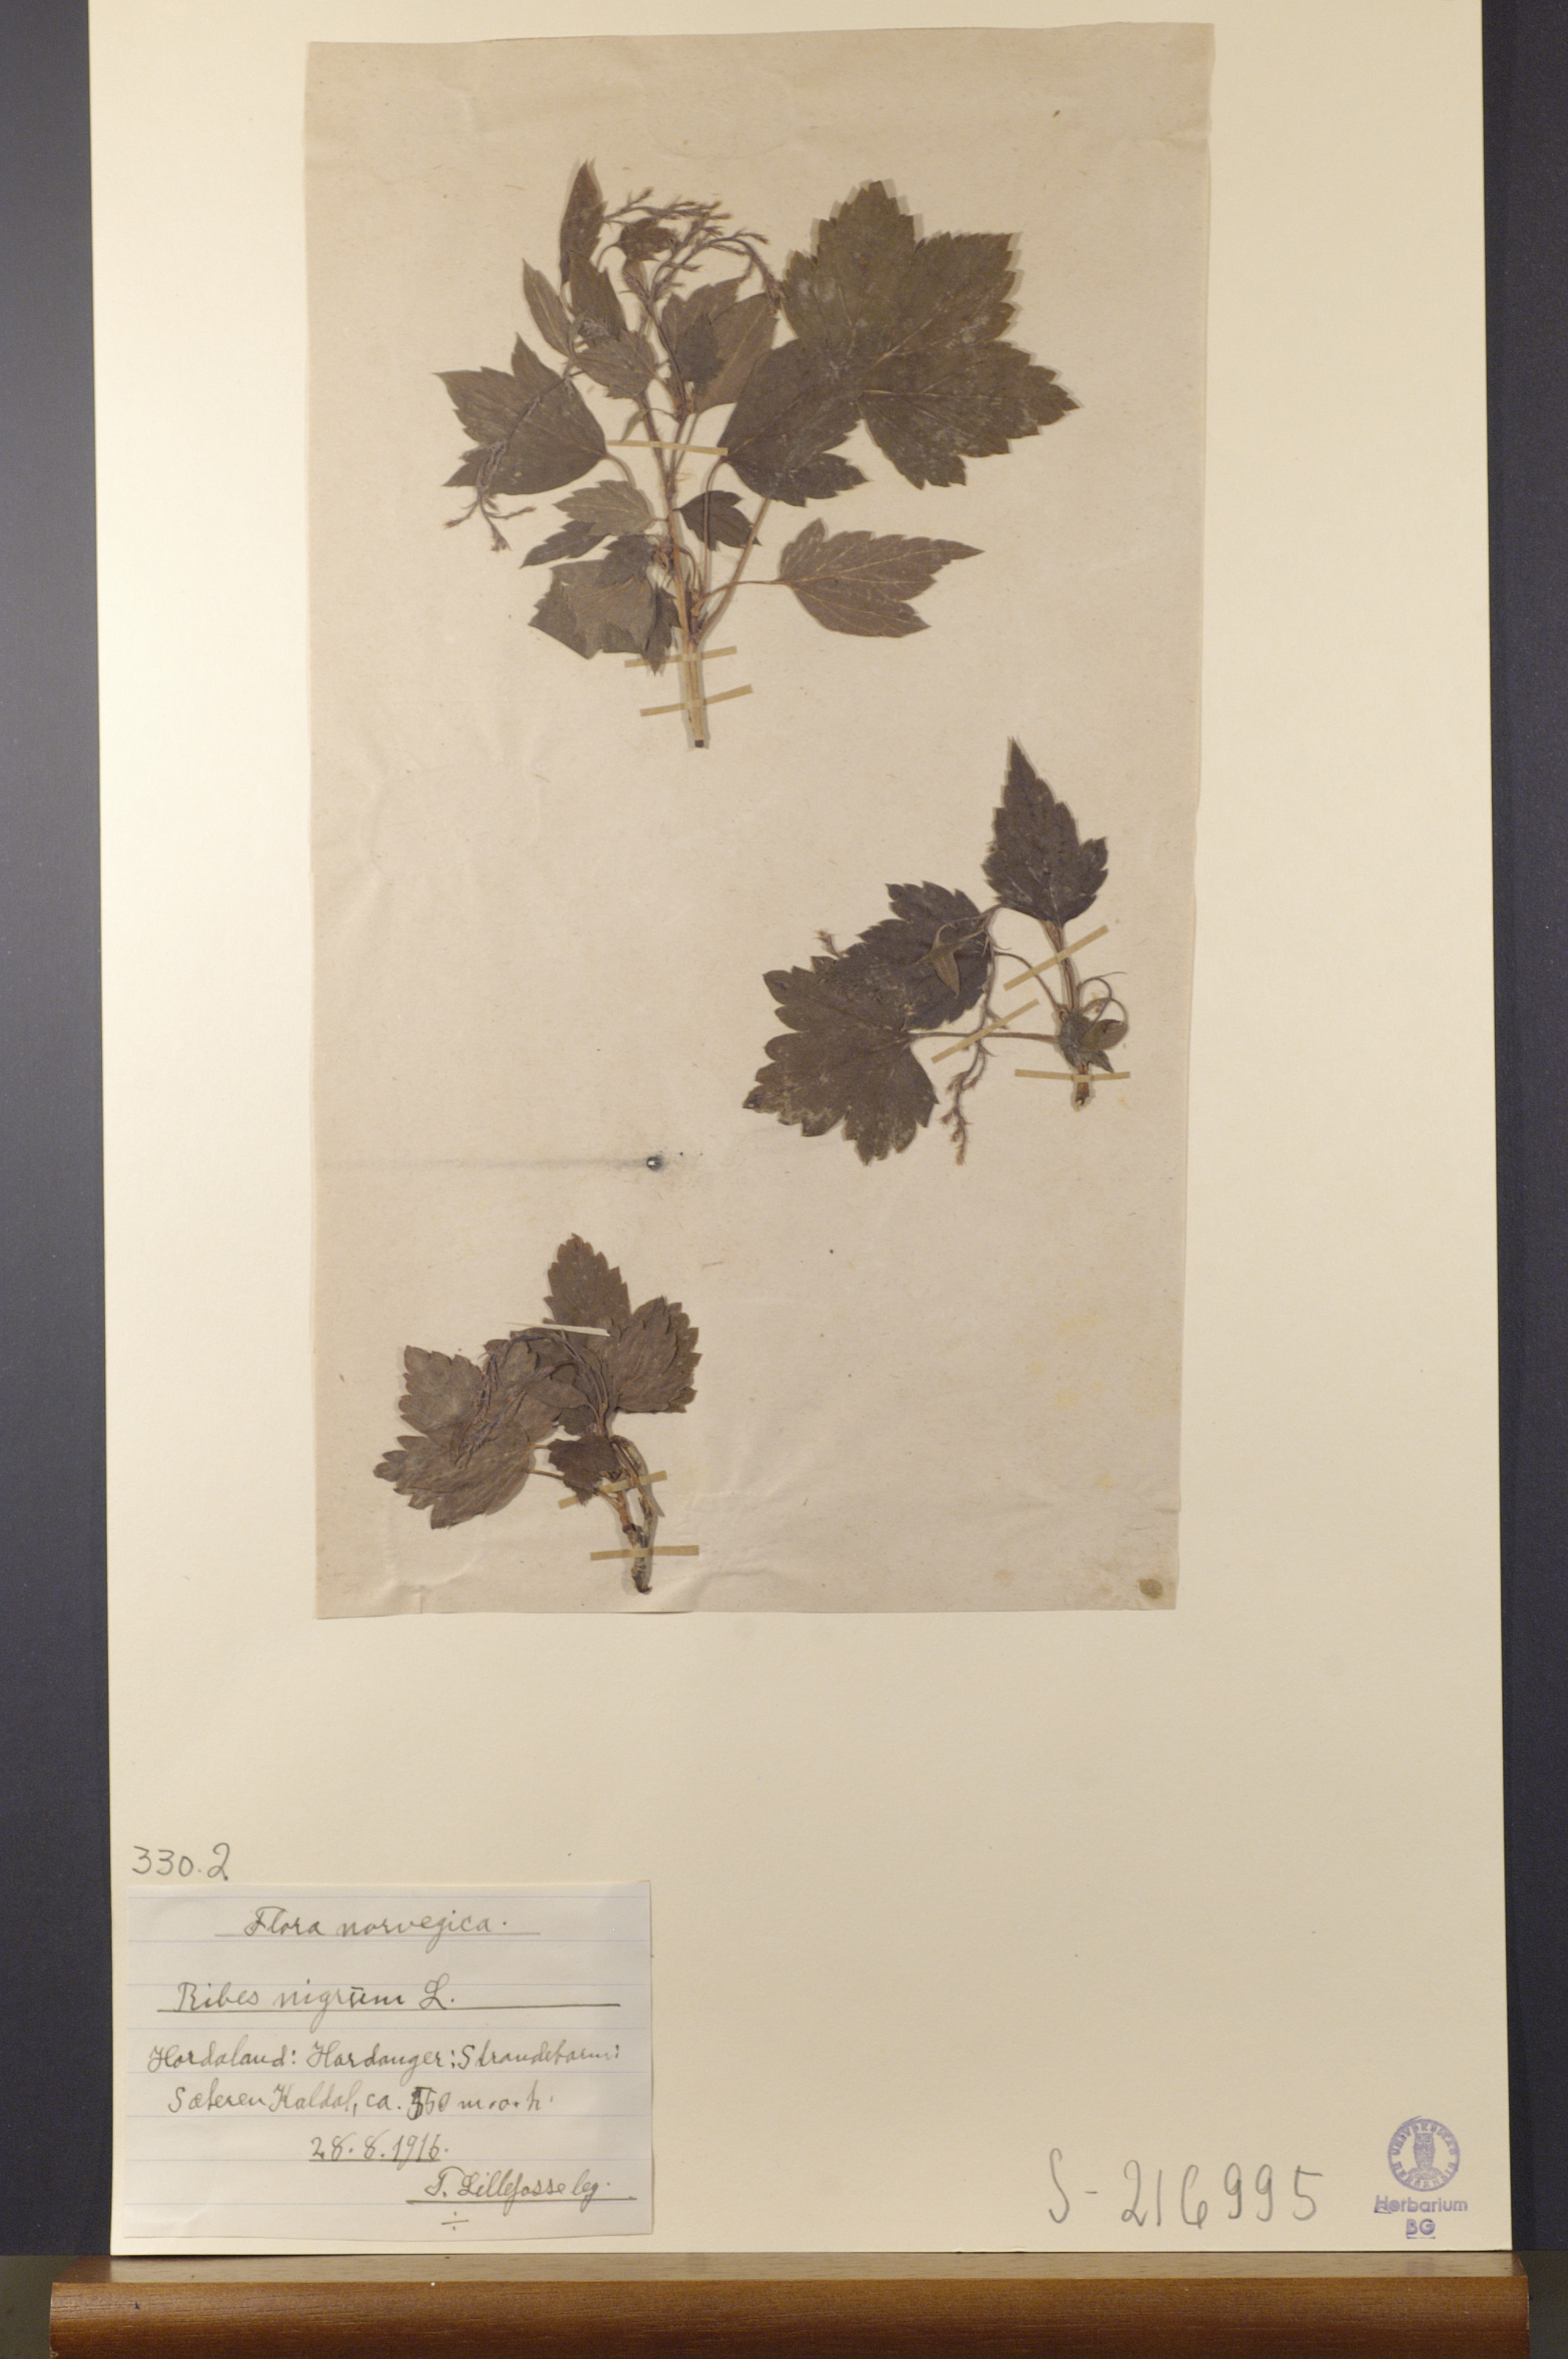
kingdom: Plantae
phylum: Tracheophyta
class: Magnoliopsida
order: Saxifragales
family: Grossulariaceae
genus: Ribes
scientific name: Ribes nigrum
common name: Black currant
